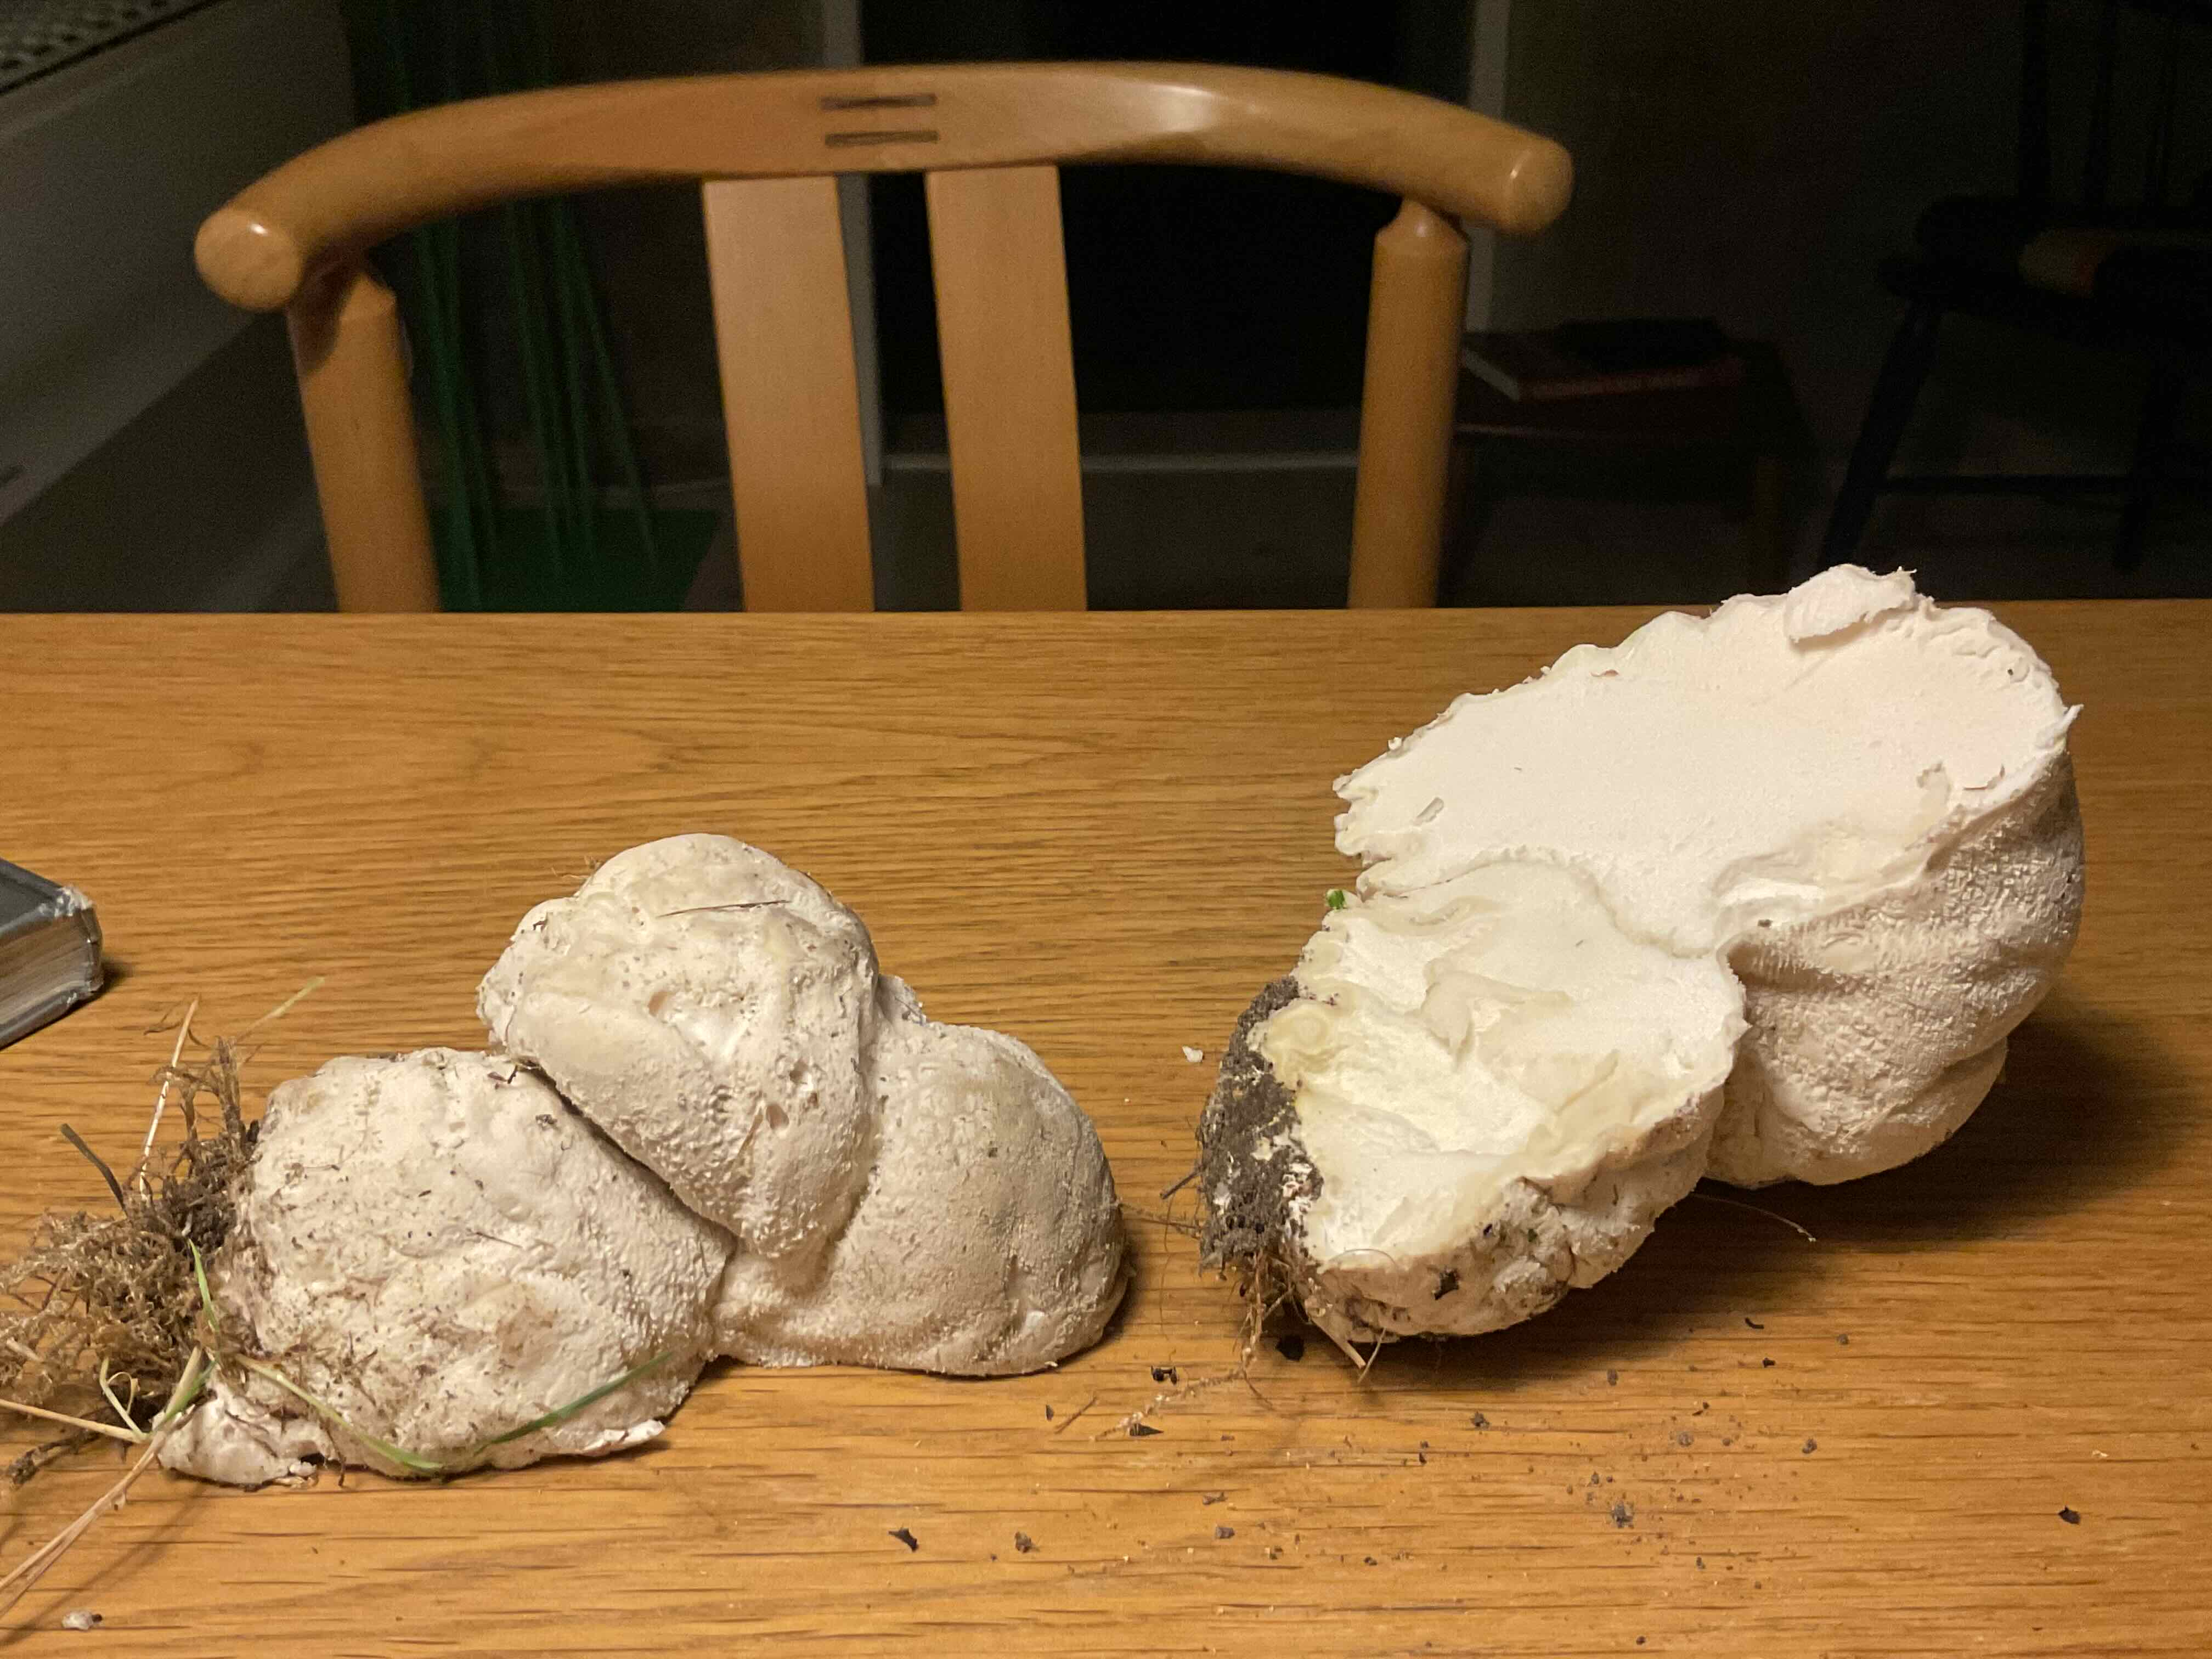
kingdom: Fungi
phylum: Basidiomycota
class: Agaricomycetes
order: Agaricales
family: Lycoperdaceae
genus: Lycoperdon
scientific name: Lycoperdon pratense
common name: flad støvbold
